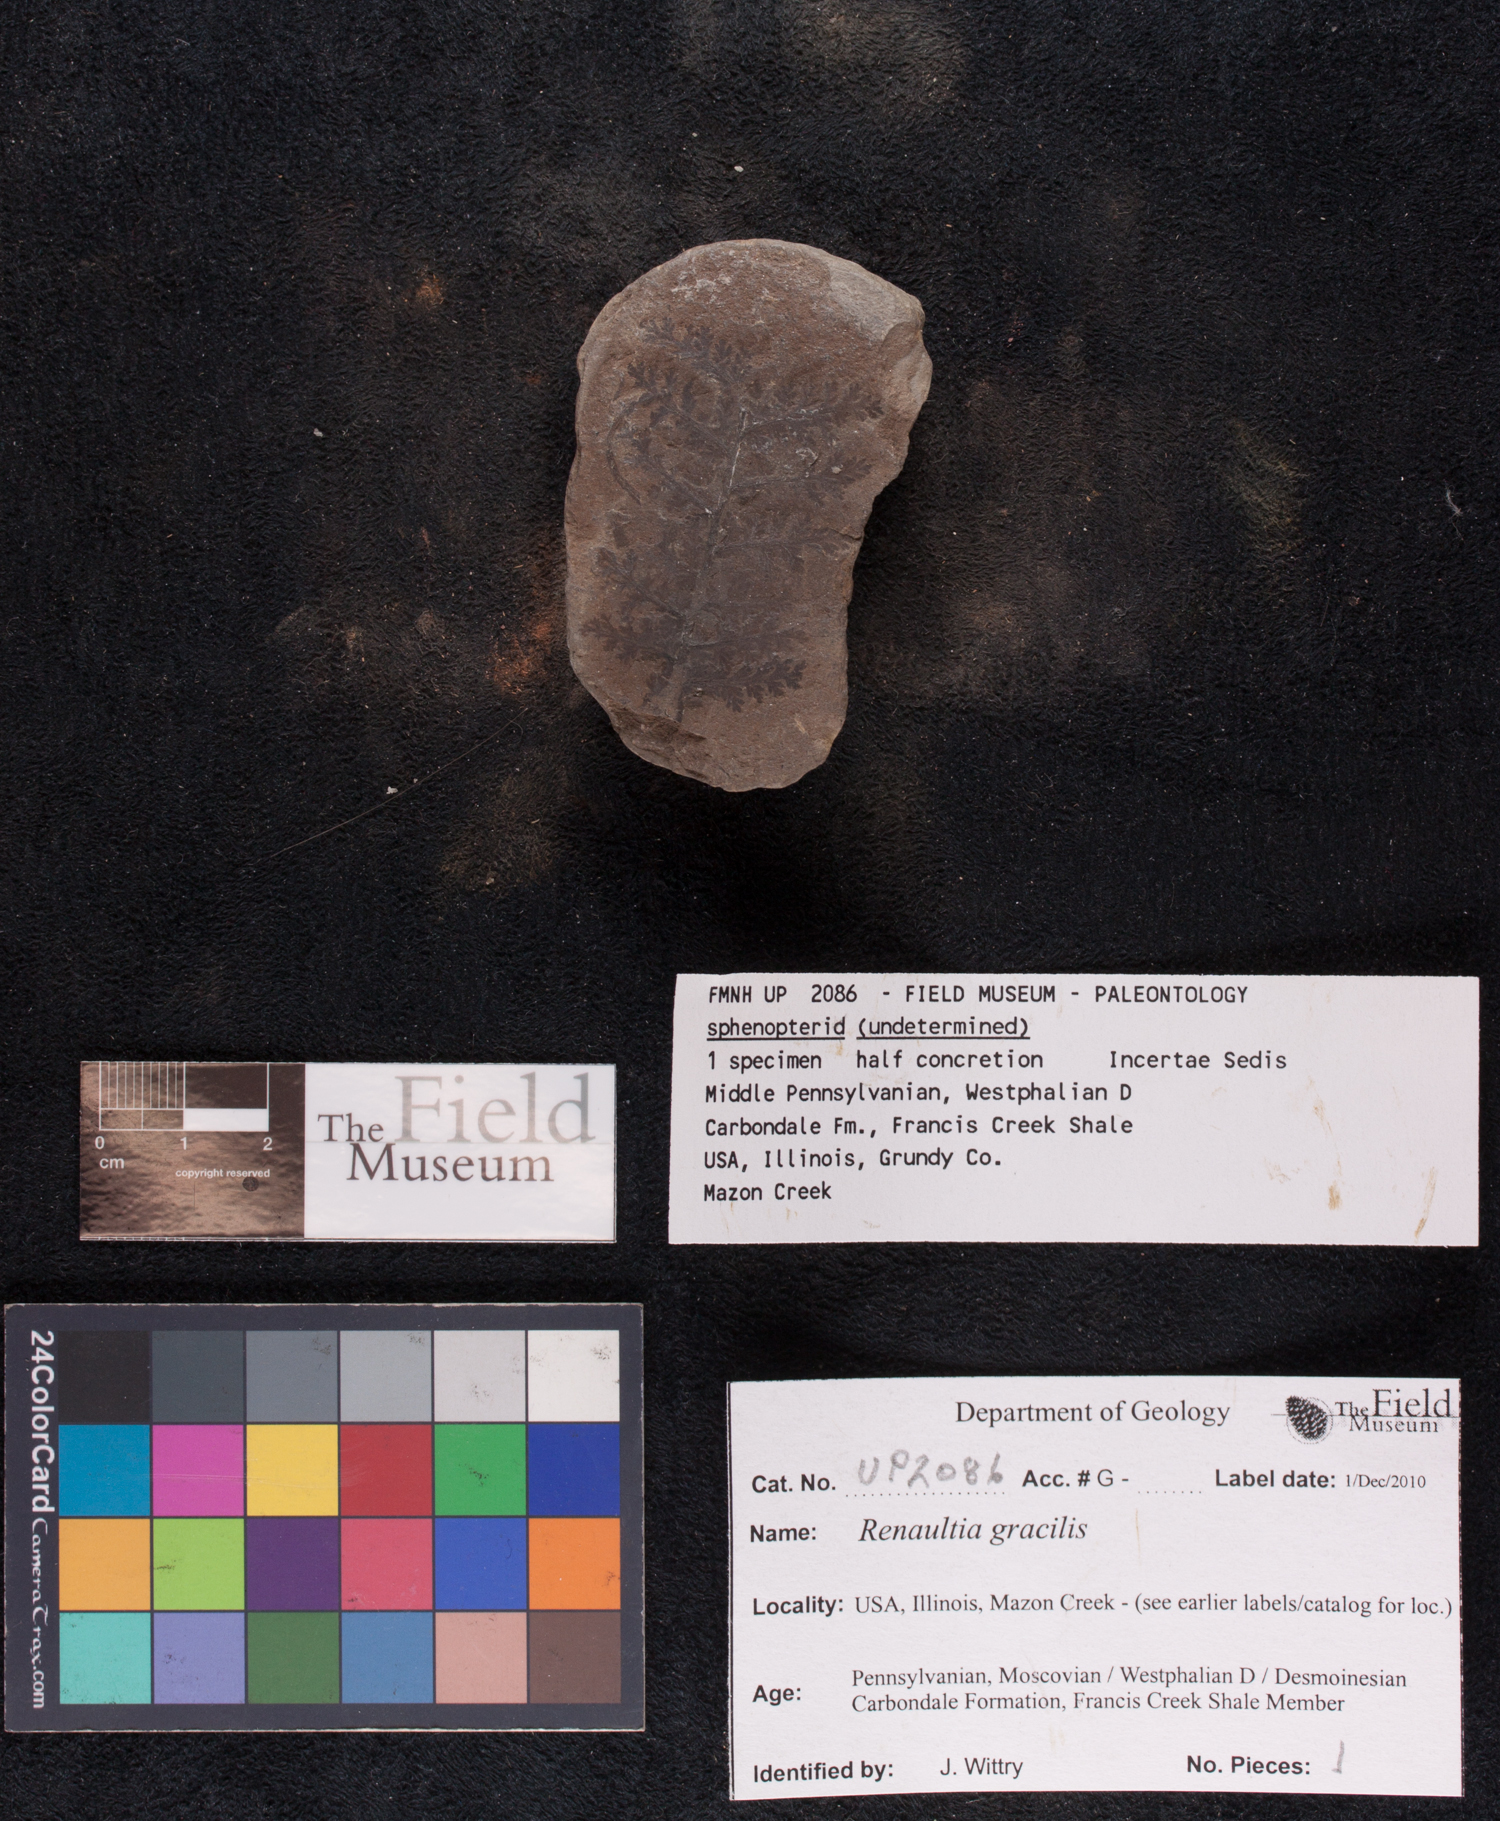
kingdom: Plantae
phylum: Tracheophyta
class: Polypodiopsida
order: Marattiales
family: Marattiaceae
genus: Renaultia
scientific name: Renaultia
